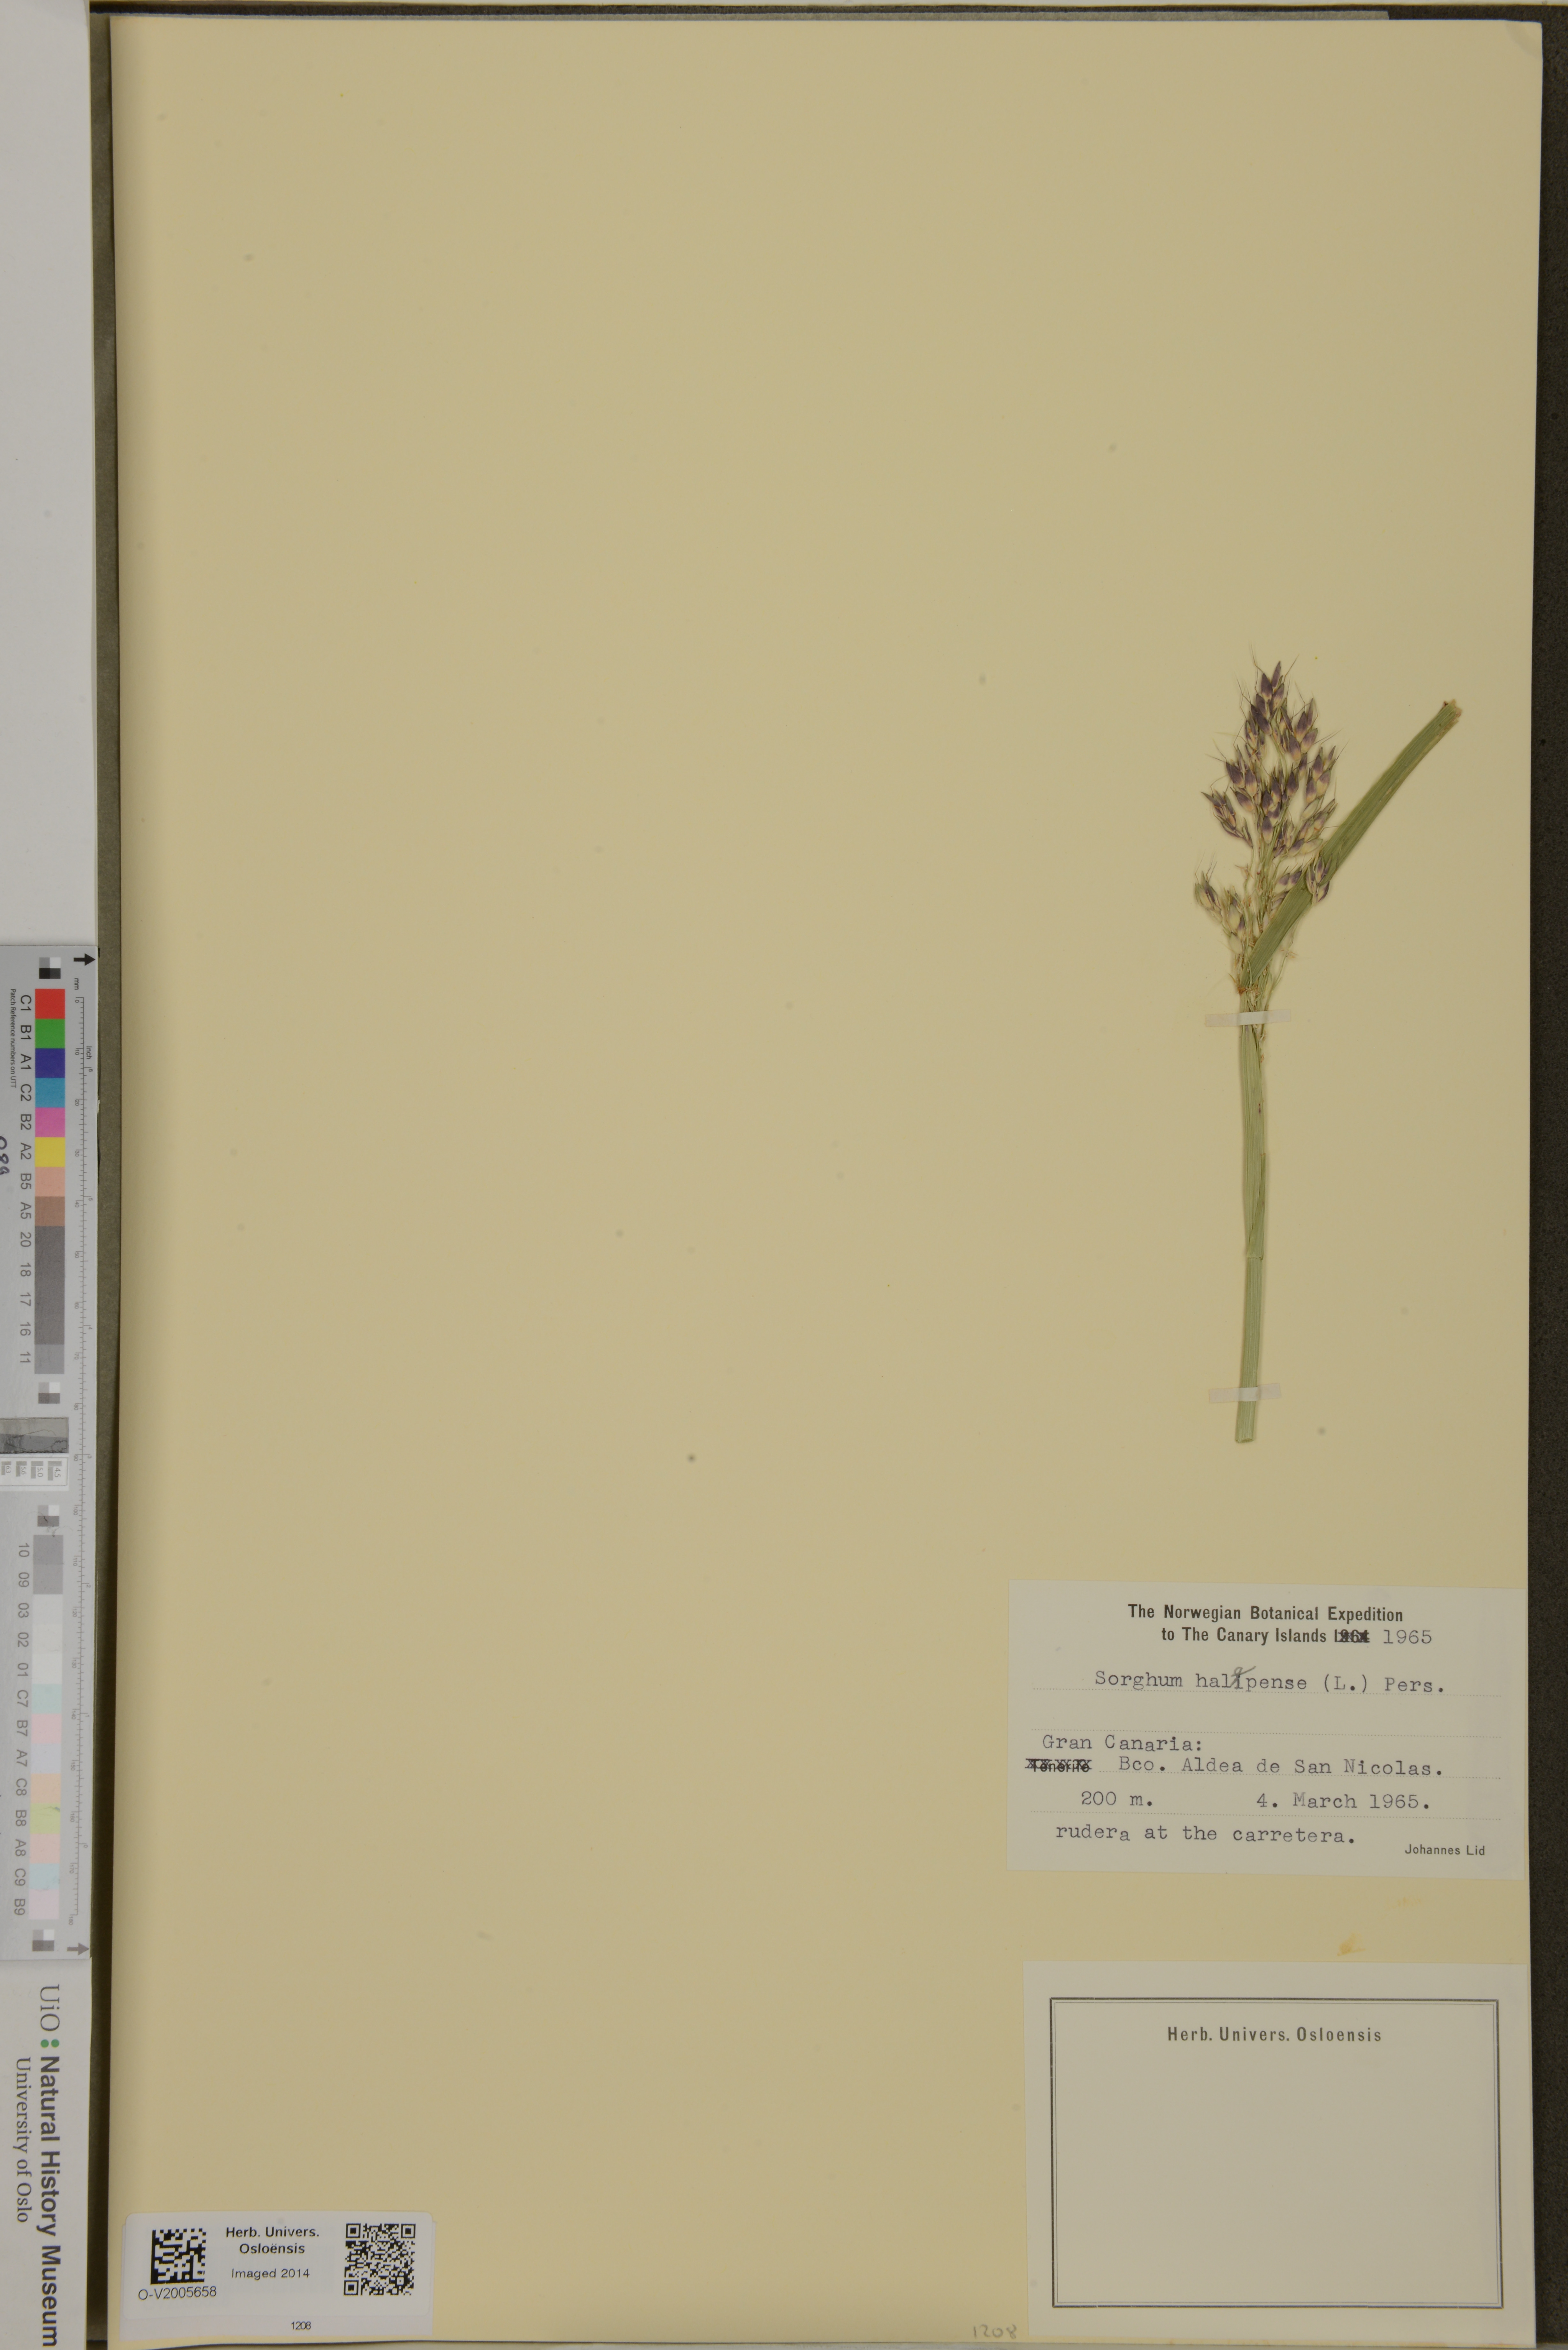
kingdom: Plantae
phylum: Tracheophyta
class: Liliopsida
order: Poales
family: Poaceae
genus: Sorghum
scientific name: Sorghum halepense
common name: Johnson-grass
